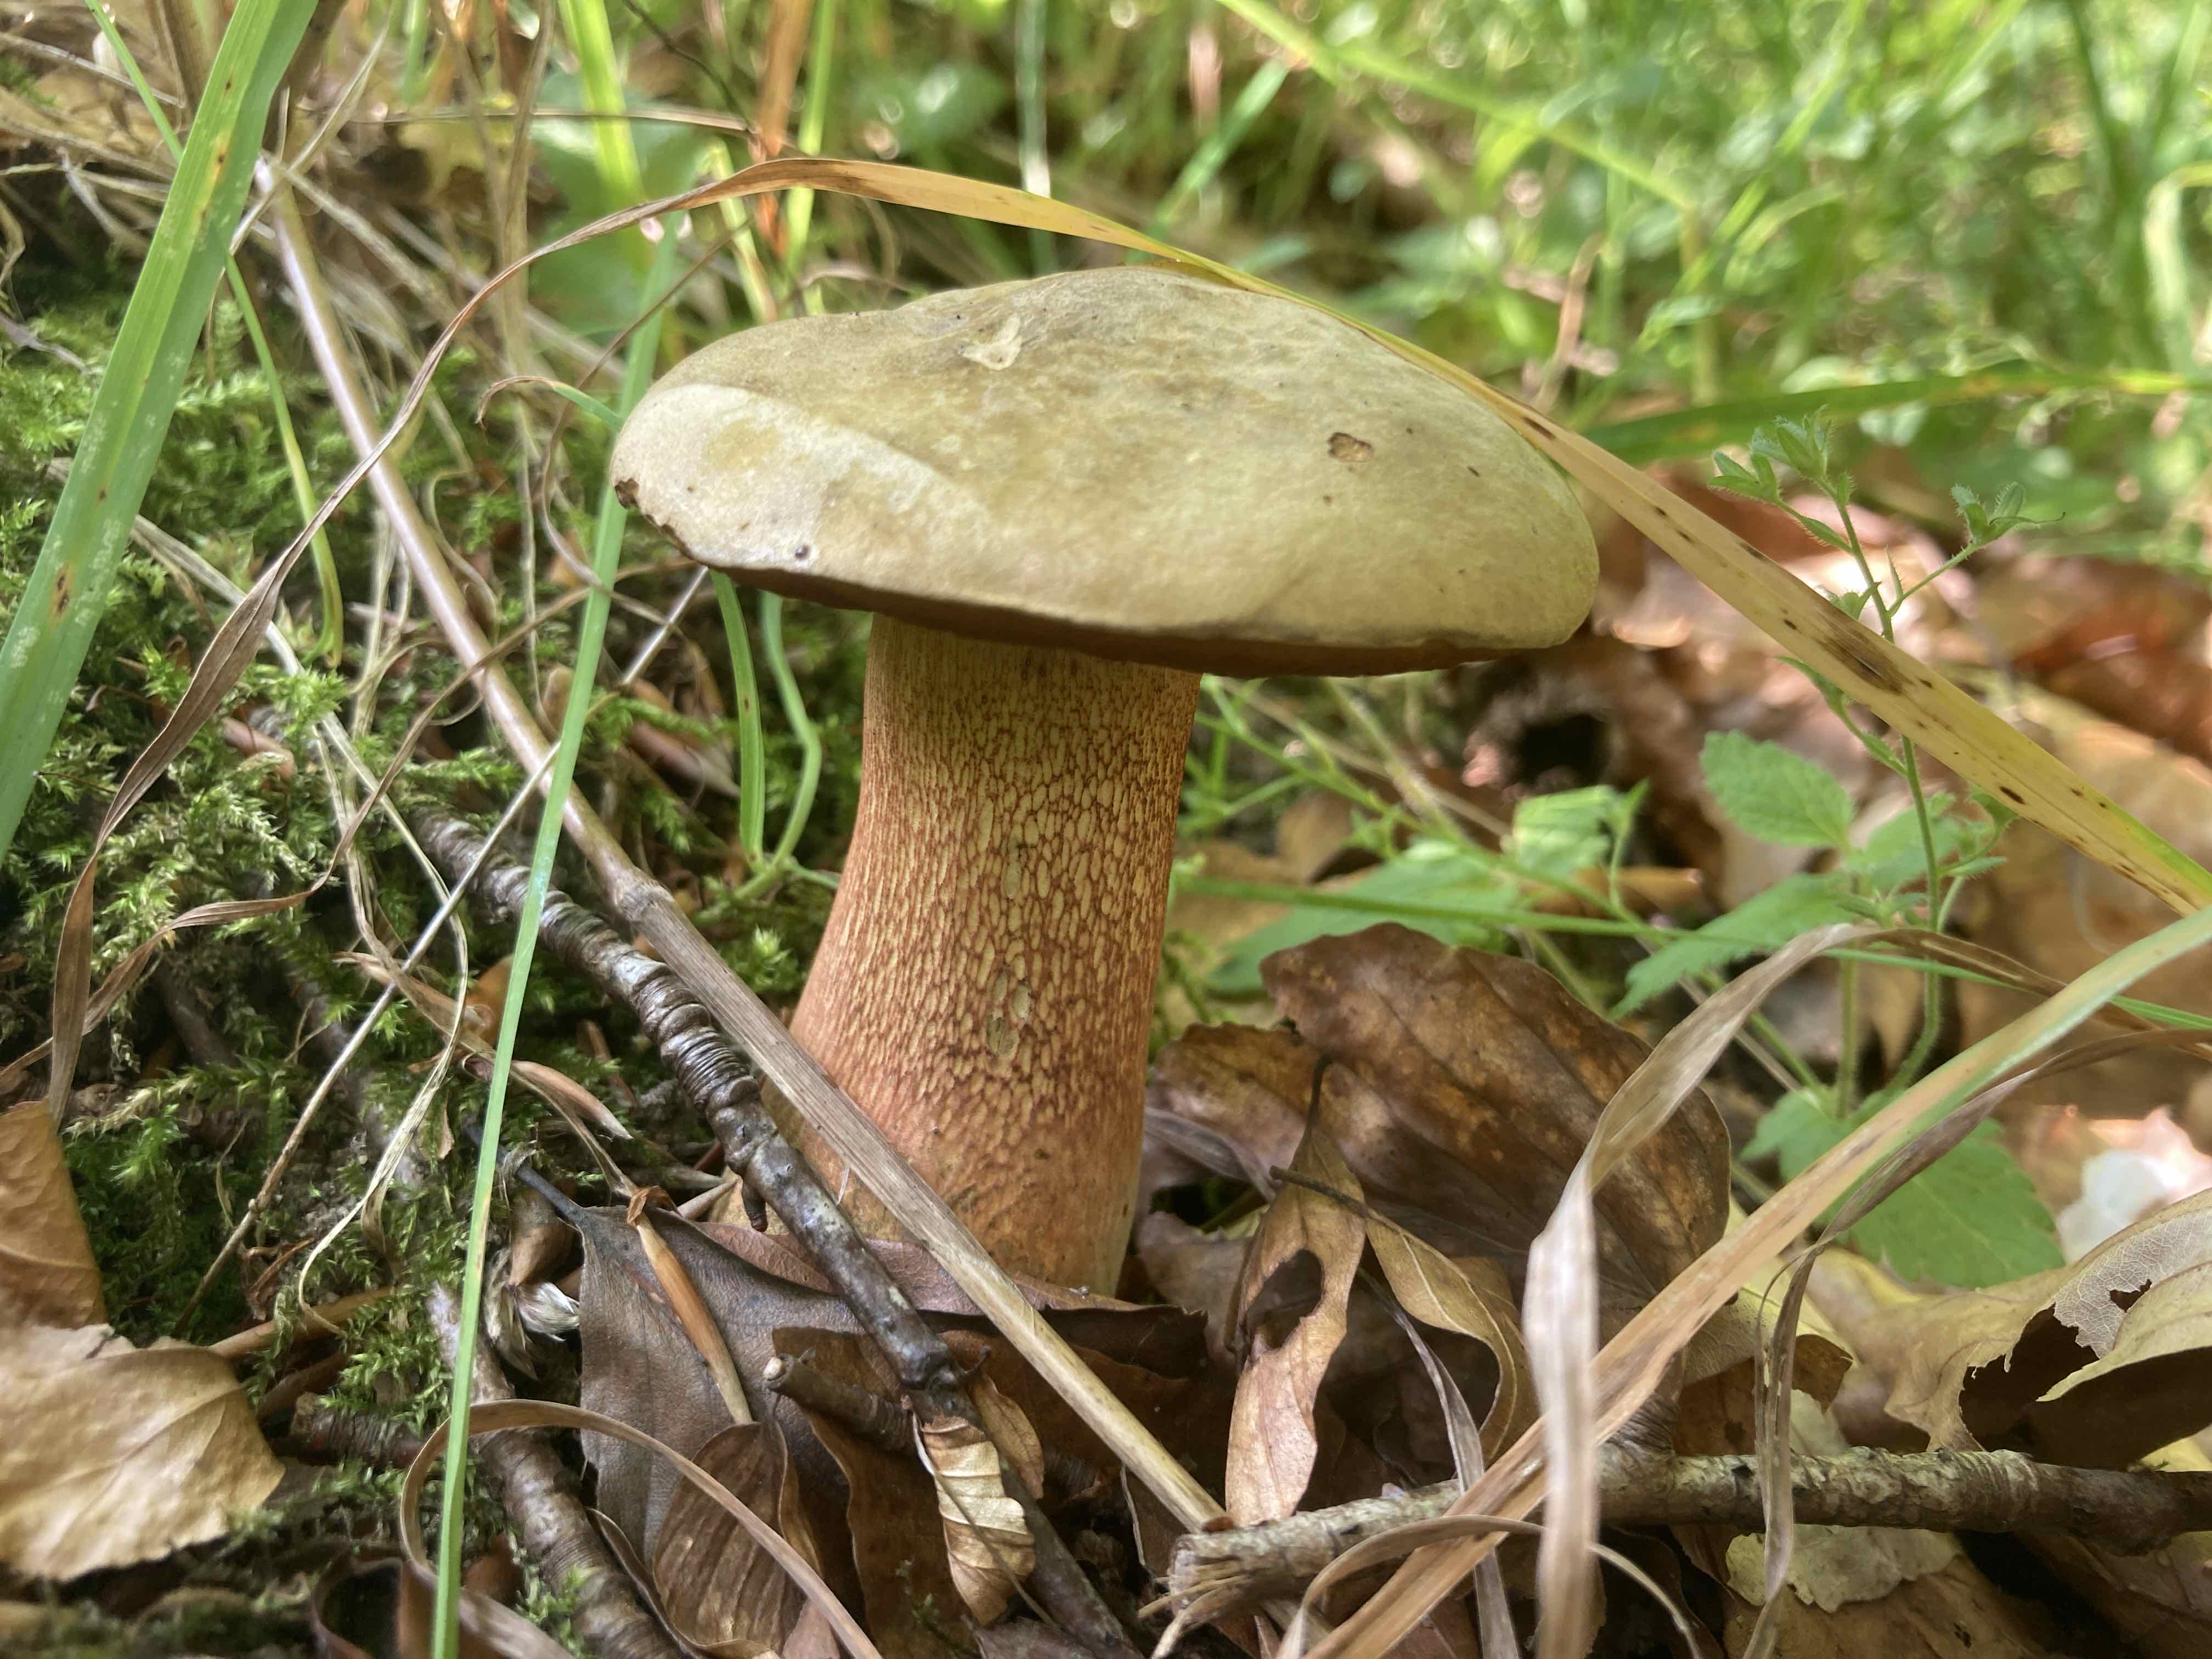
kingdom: Fungi
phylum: Basidiomycota
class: Agaricomycetes
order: Boletales
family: Boletaceae
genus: Suillellus
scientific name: Suillellus luridus
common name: netstokket indigorørhat
